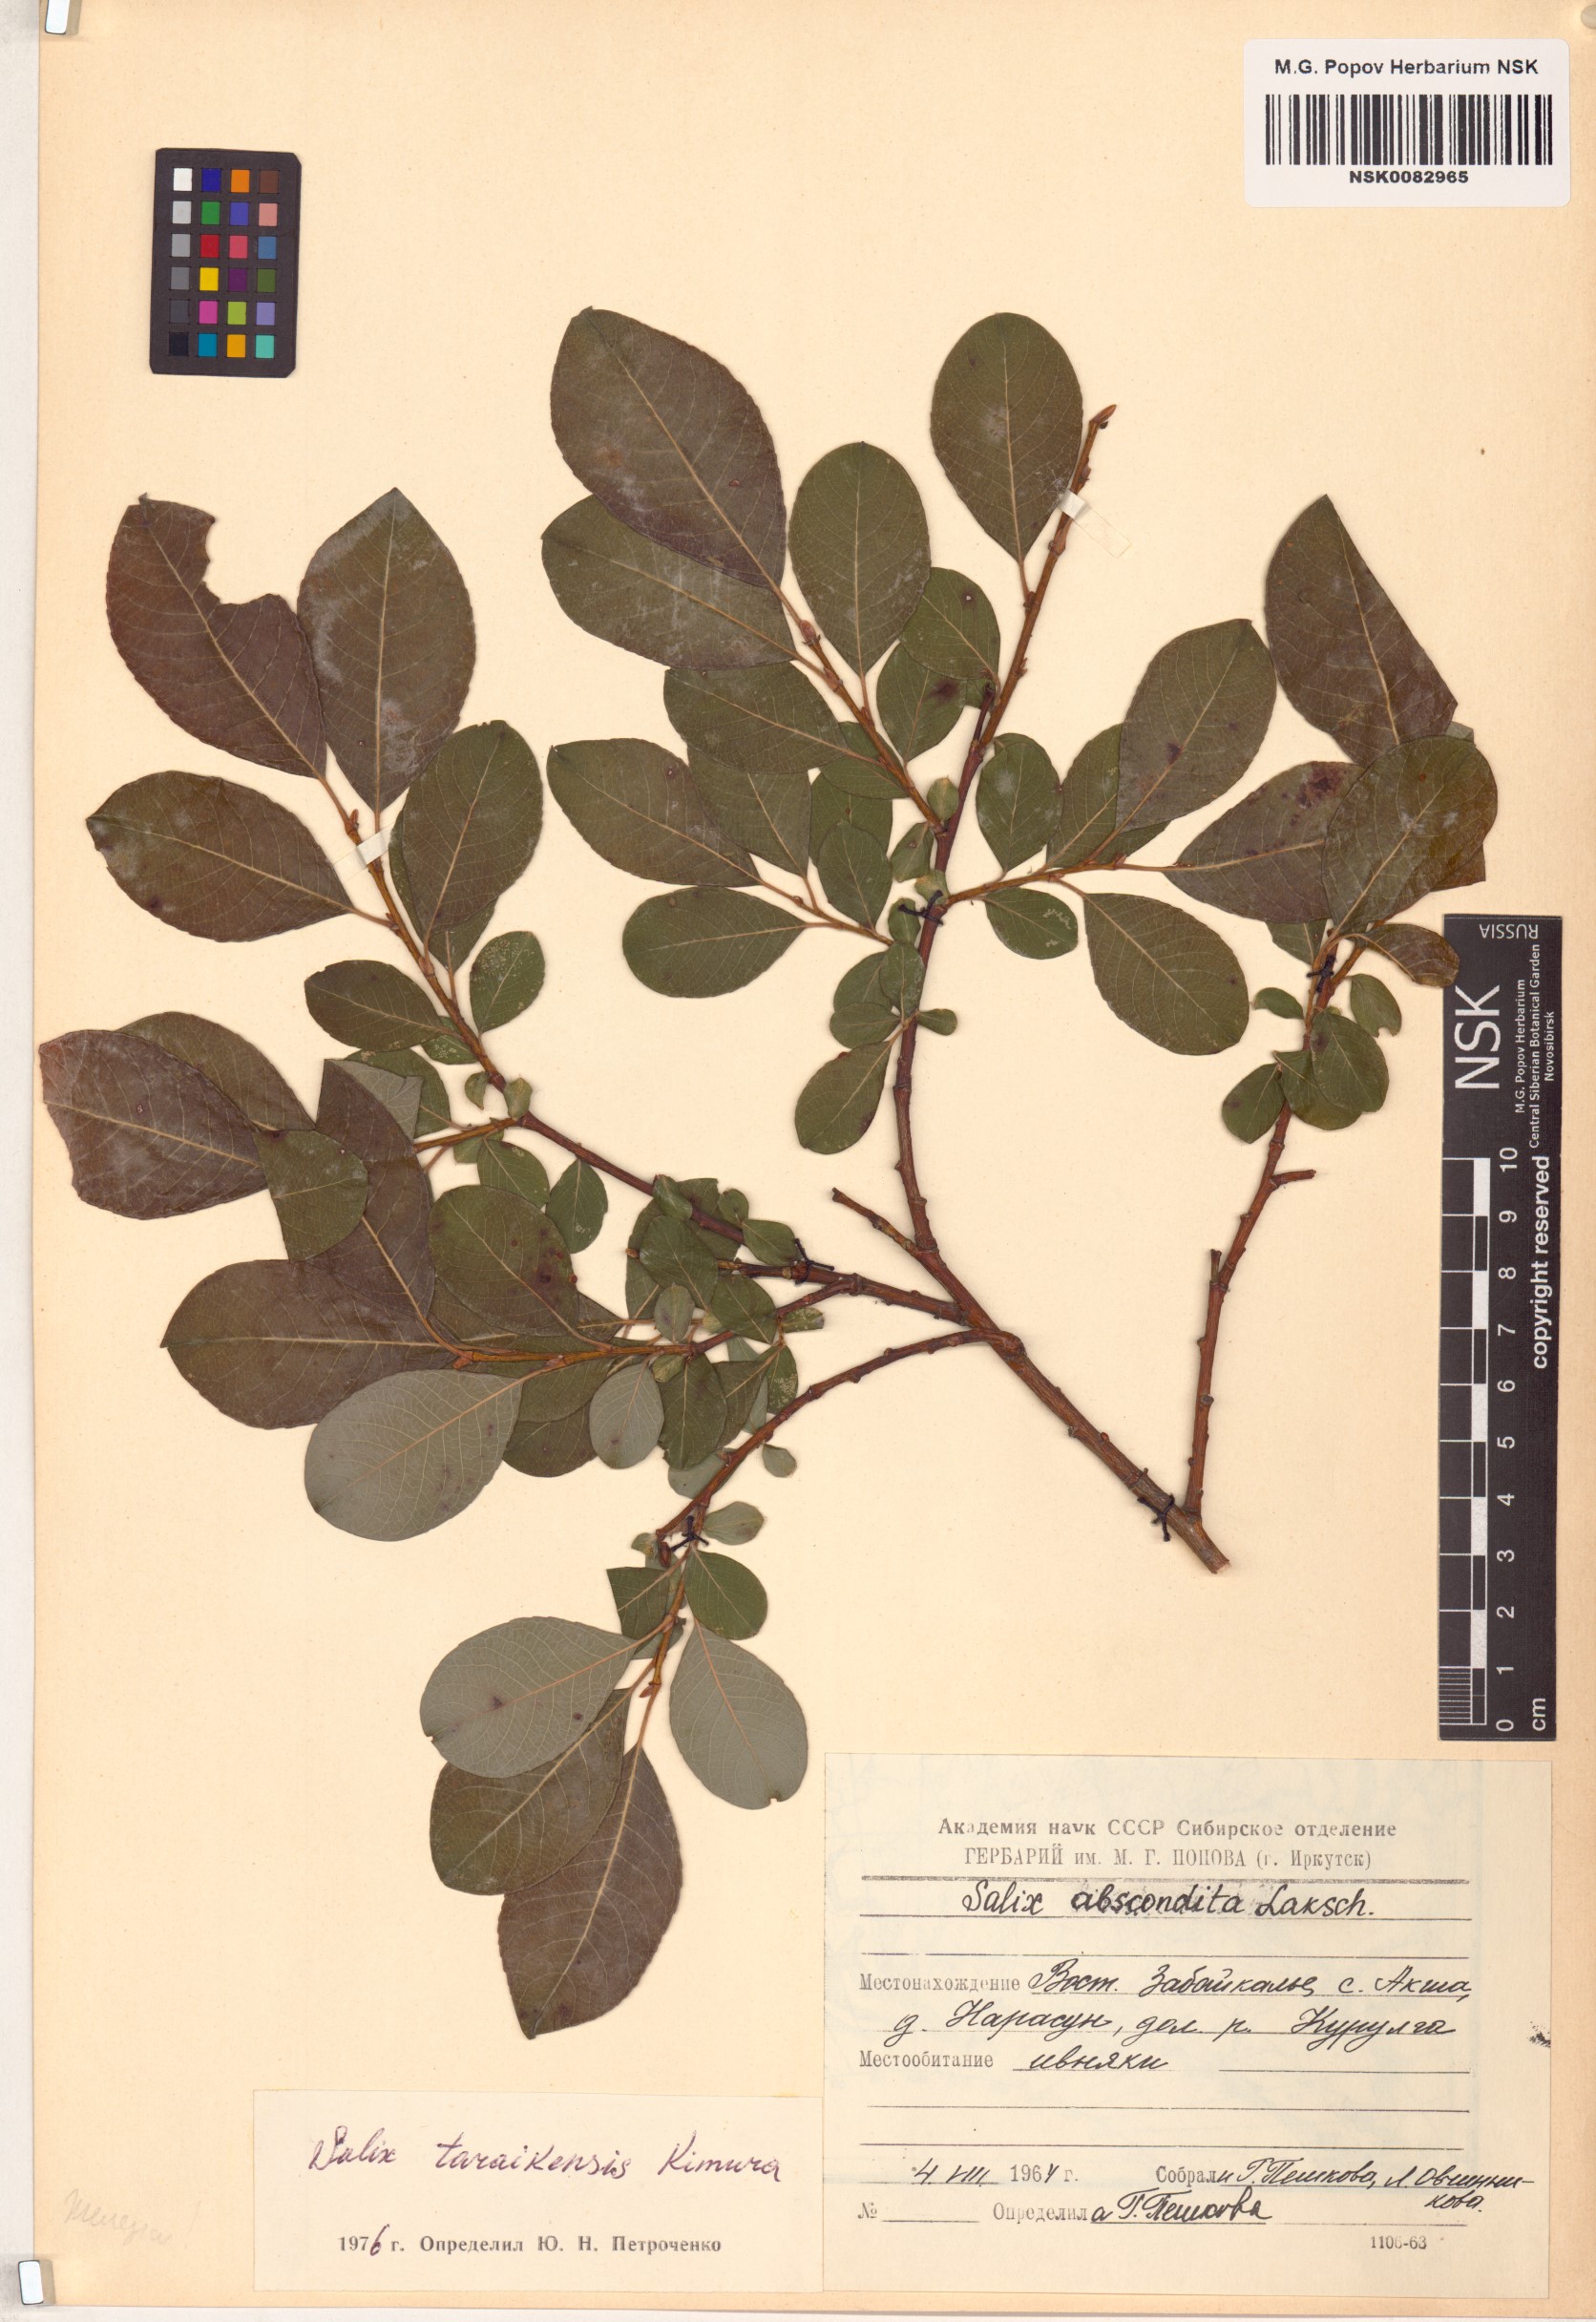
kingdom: Plantae
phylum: Tracheophyta
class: Magnoliopsida
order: Malpighiales
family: Salicaceae
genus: Salix
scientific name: Salix taraikensis
